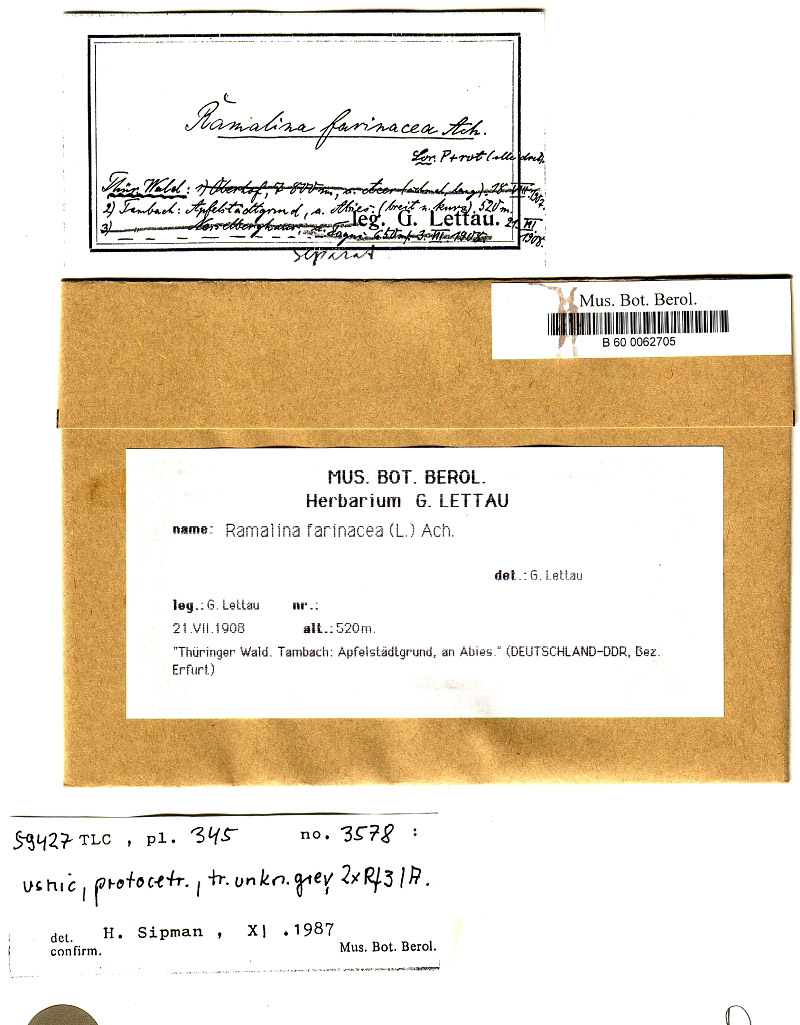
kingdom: Fungi
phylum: Ascomycota
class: Lecanoromycetes
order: Lecanorales
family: Ramalinaceae
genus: Ramalina
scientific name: Ramalina farinacea
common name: Farinose cartilage lichen
